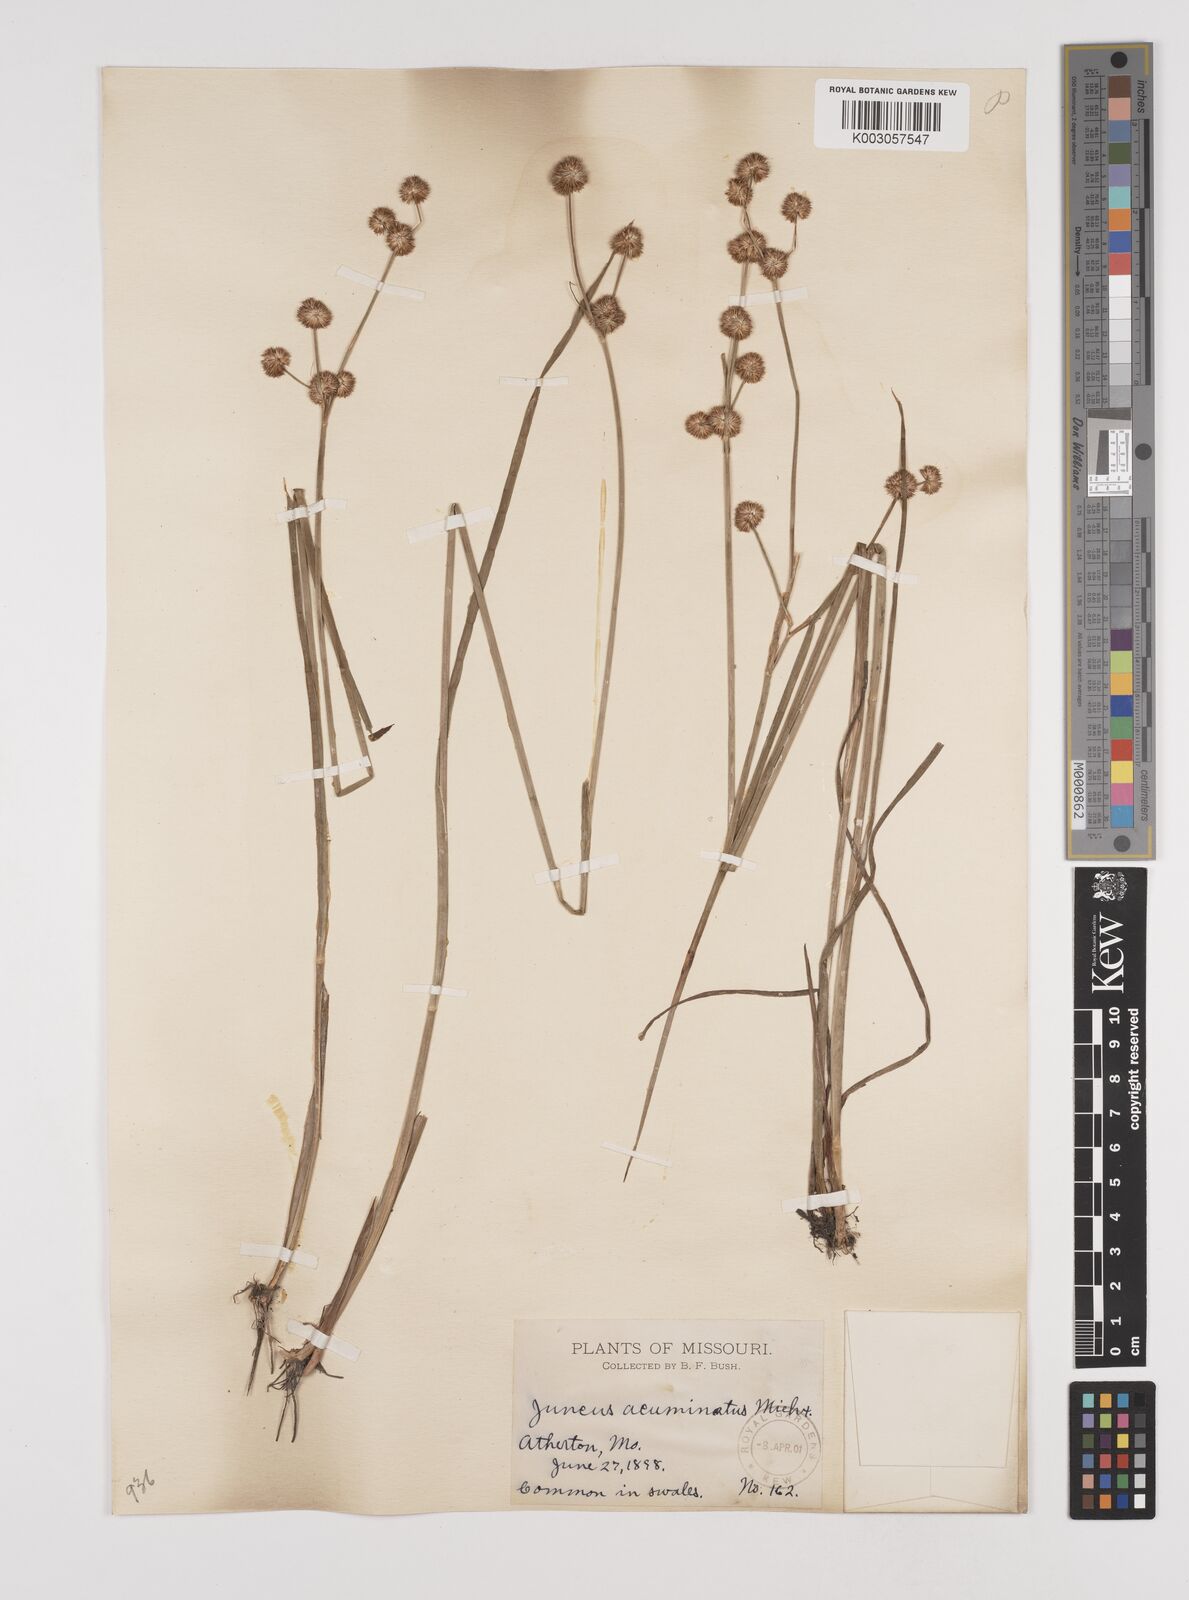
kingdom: Plantae
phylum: Tracheophyta
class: Liliopsida
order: Poales
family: Juncaceae
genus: Juncus
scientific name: Juncus acuminatus
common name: Knotty-leaved rush
